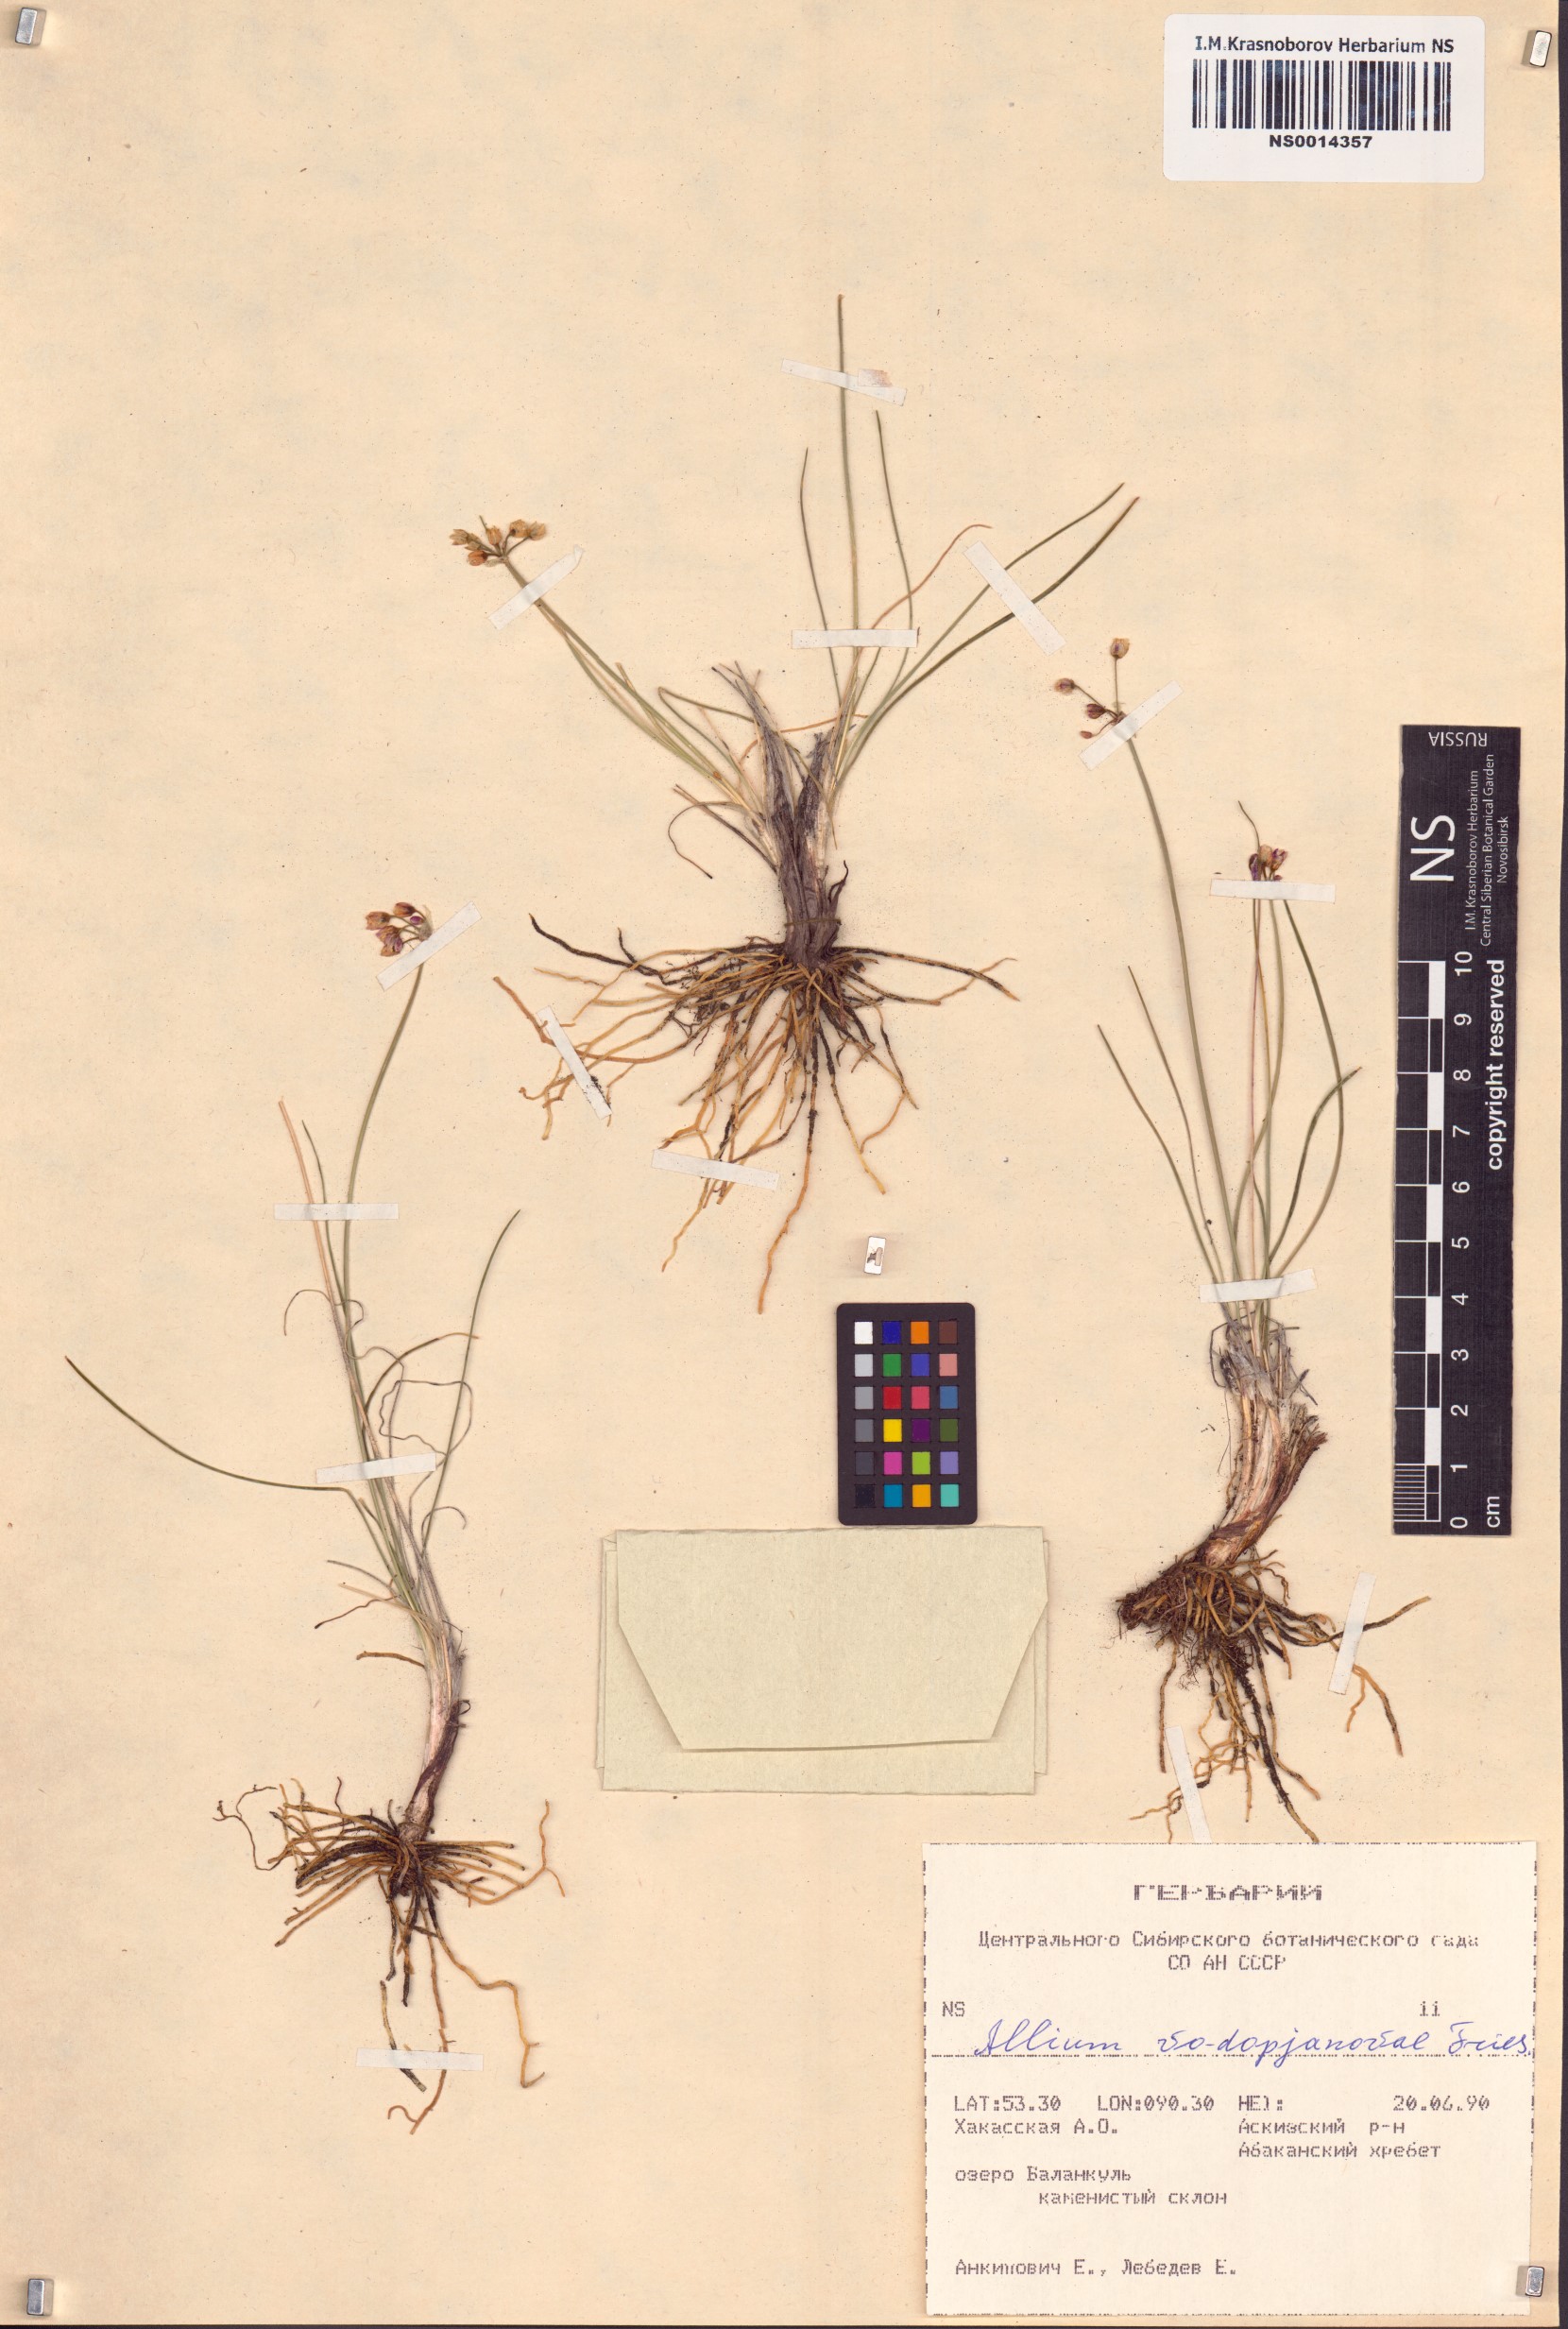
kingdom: Plantae
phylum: Tracheophyta
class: Liliopsida
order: Asparagales
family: Amaryllidaceae
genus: Allium
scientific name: Allium vodopjanovae
